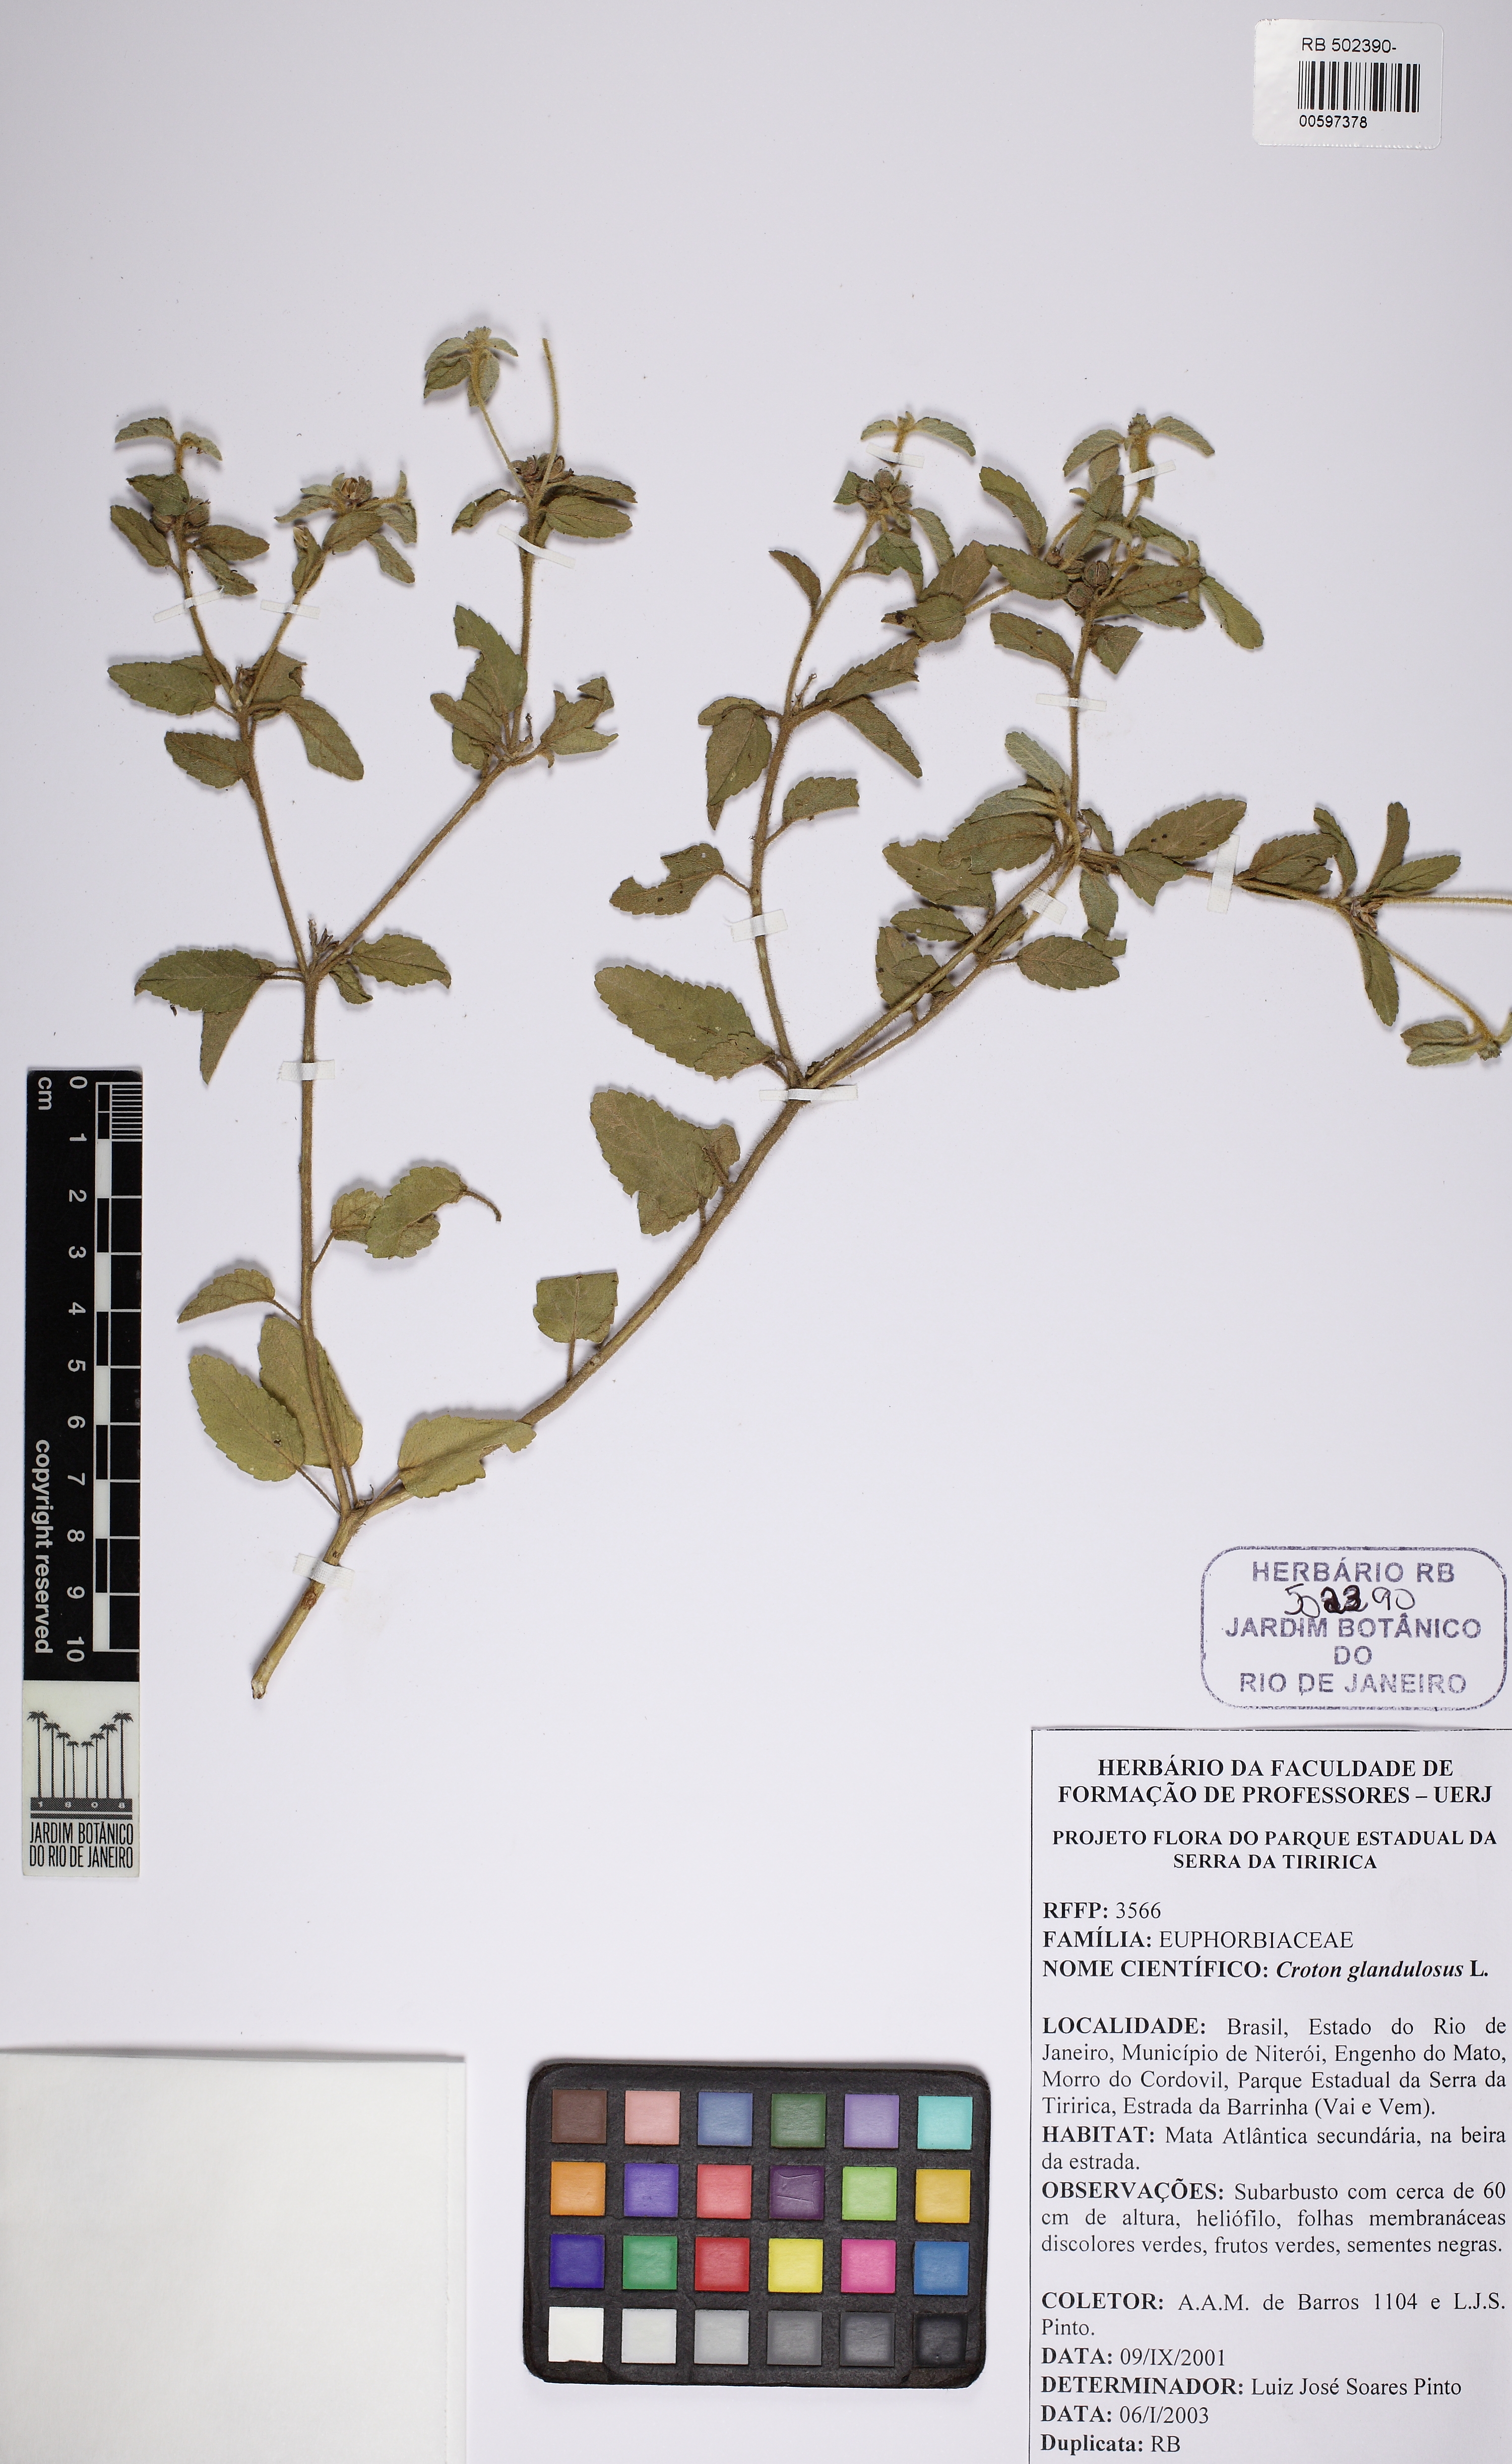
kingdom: Plantae
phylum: Tracheophyta
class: Magnoliopsida
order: Malpighiales
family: Euphorbiaceae
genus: Croton
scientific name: Croton glandulosus
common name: Tropic croton
